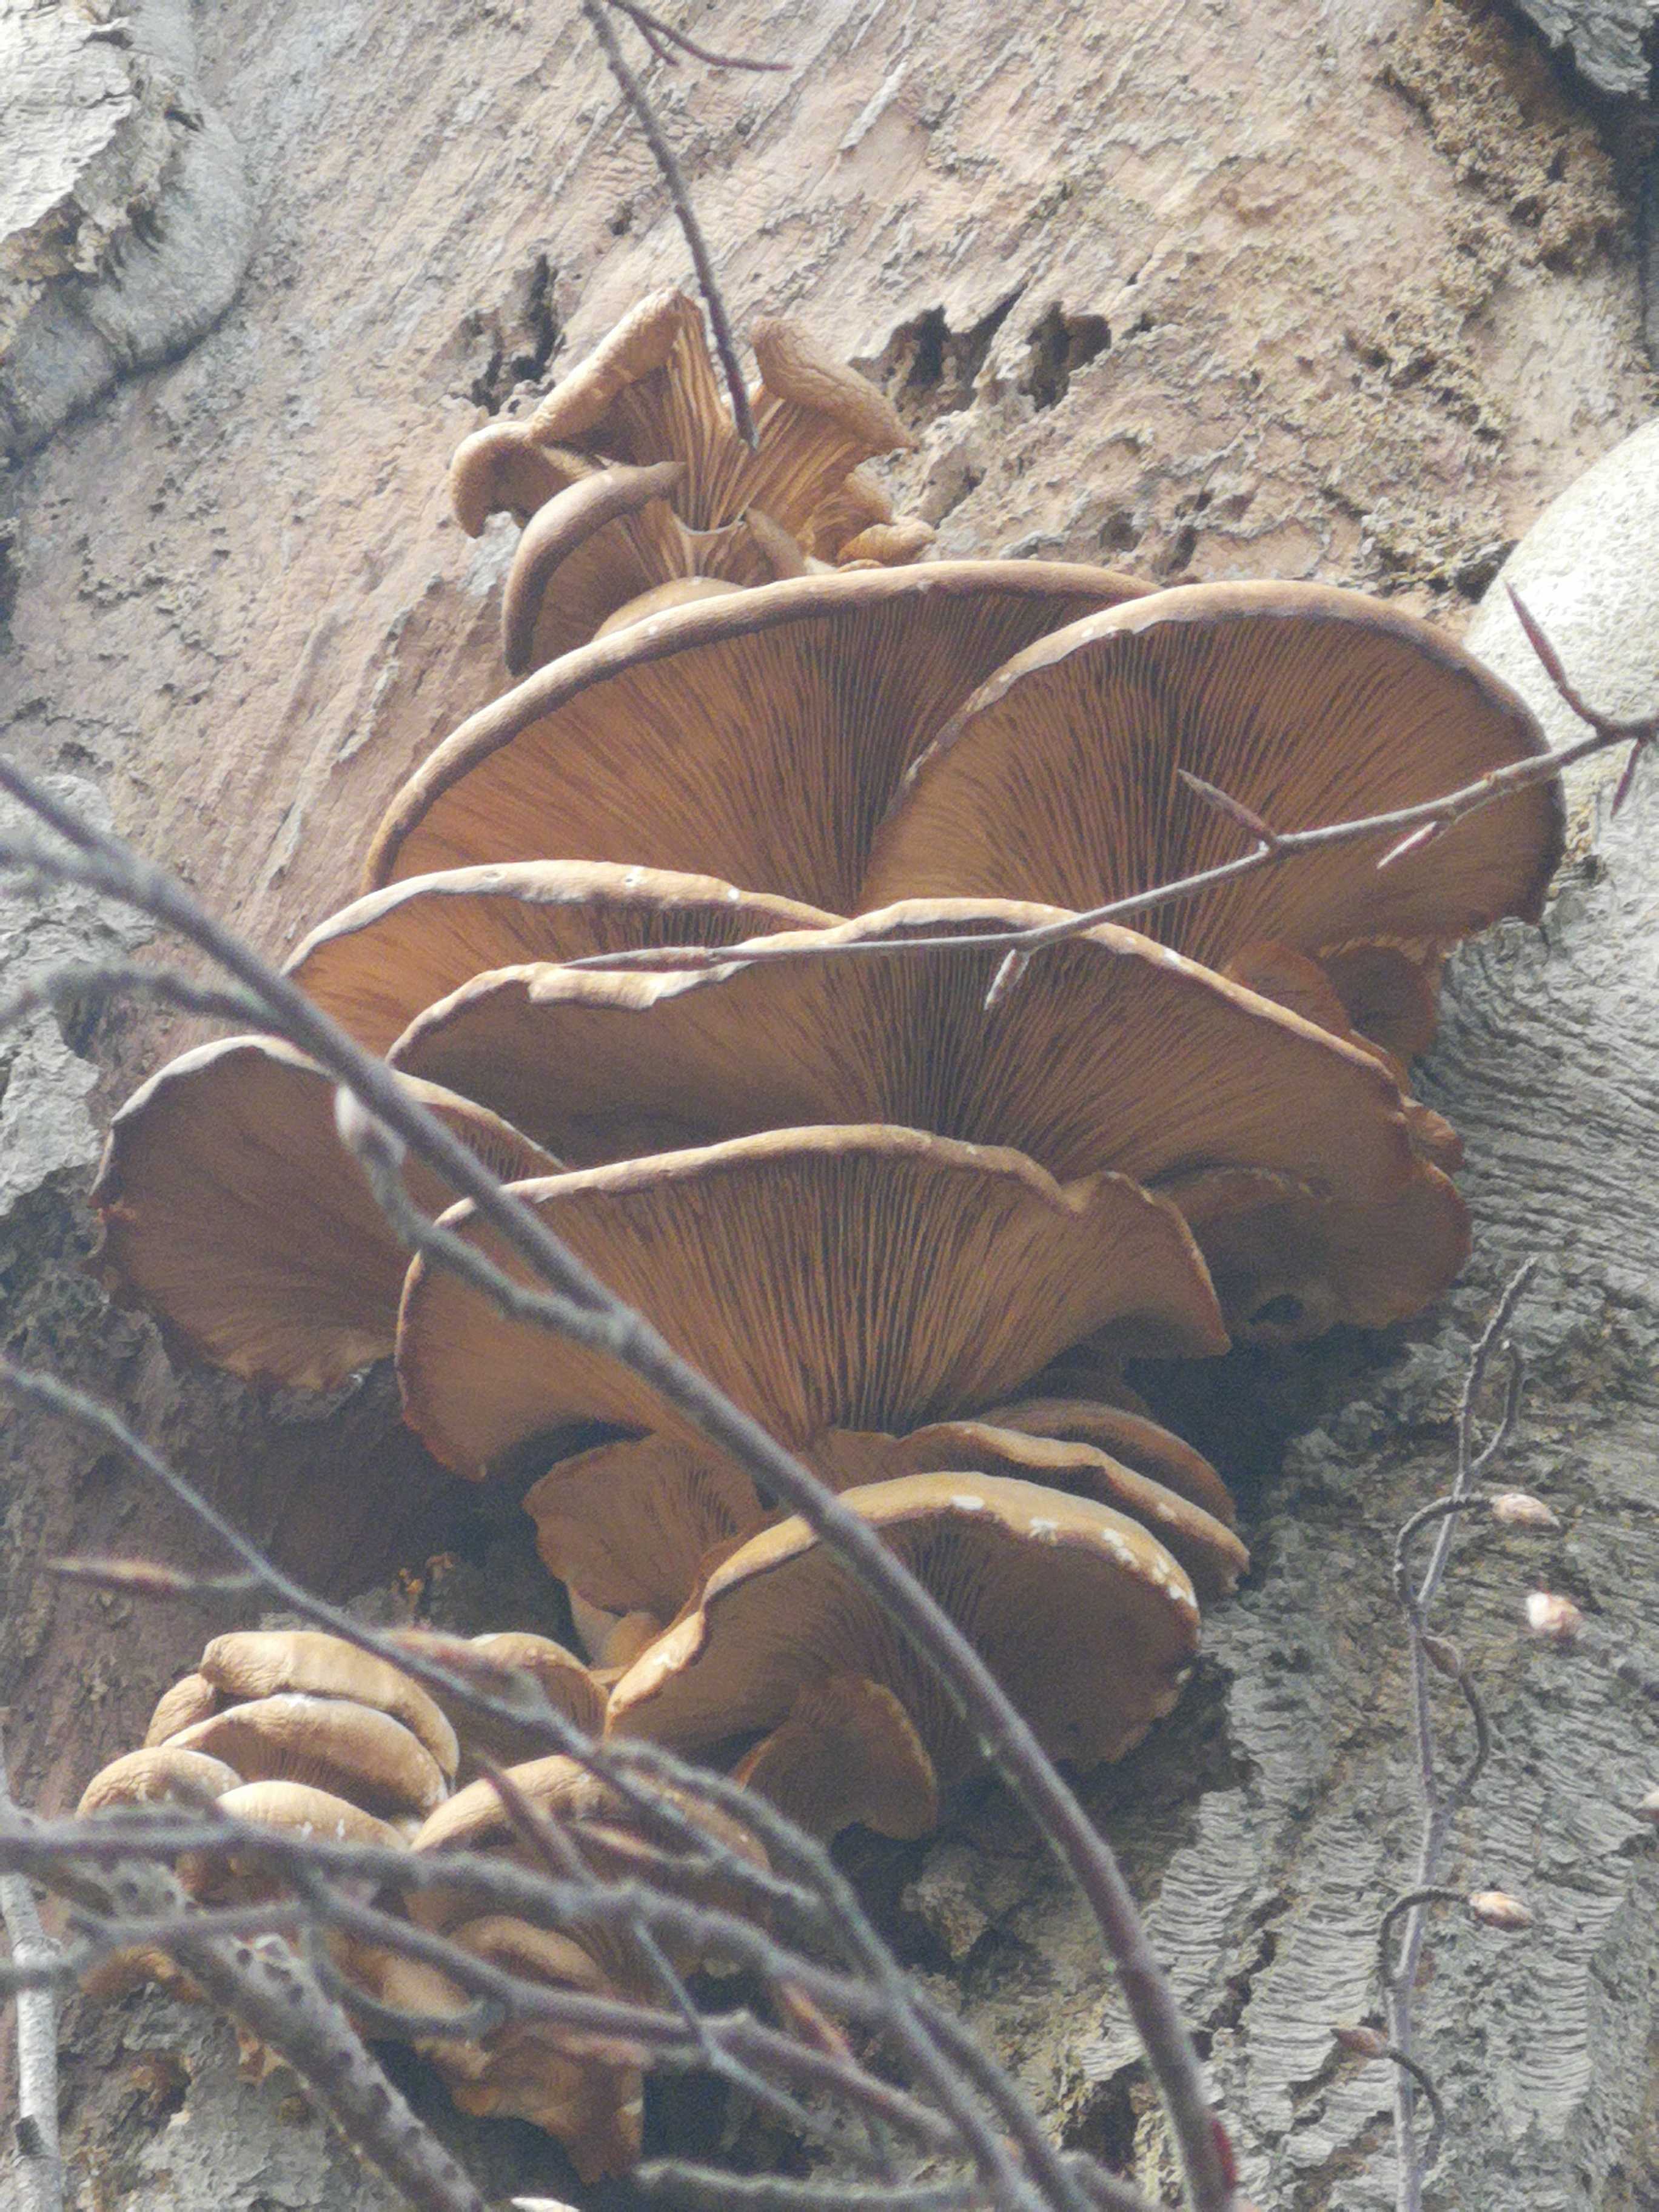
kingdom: Fungi
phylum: Basidiomycota
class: Agaricomycetes
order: Agaricales
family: Pleurotaceae
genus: Pleurotus
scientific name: Pleurotus ostreatus
